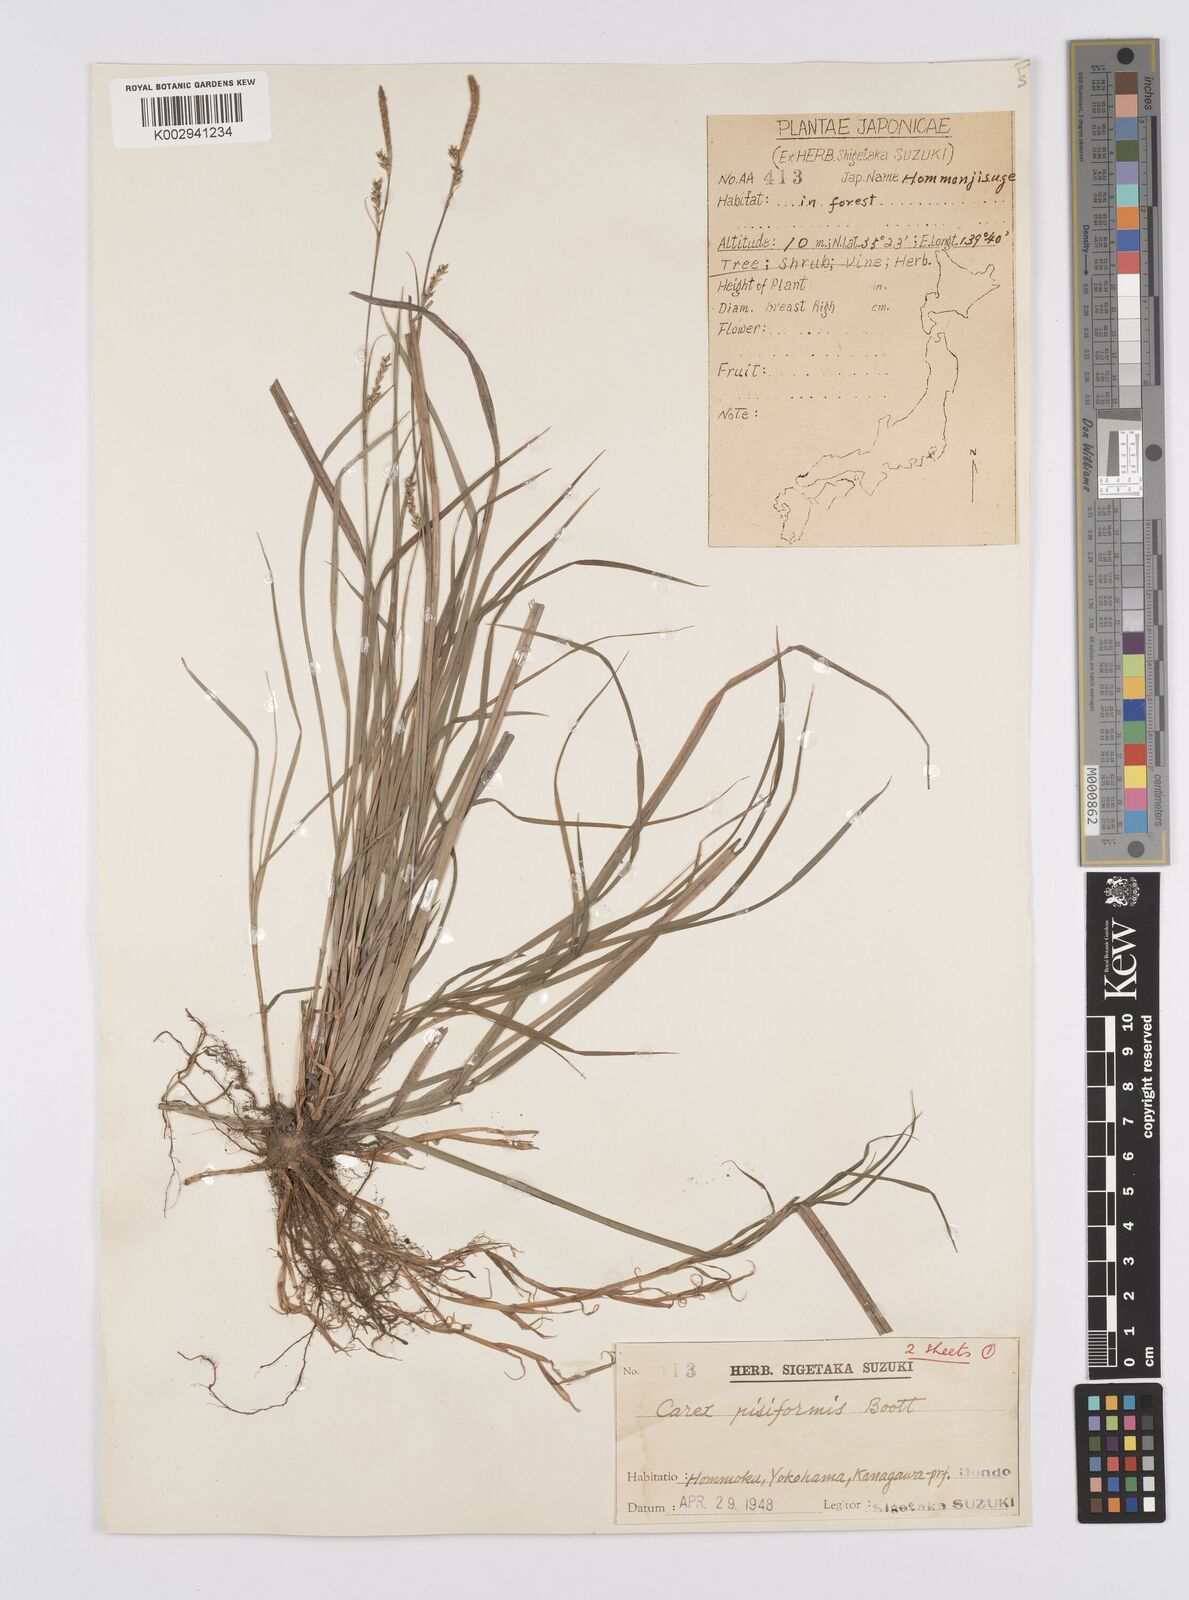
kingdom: Plantae
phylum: Tracheophyta
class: Liliopsida
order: Poales
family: Cyperaceae
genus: Carex
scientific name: Carex pisiformis
